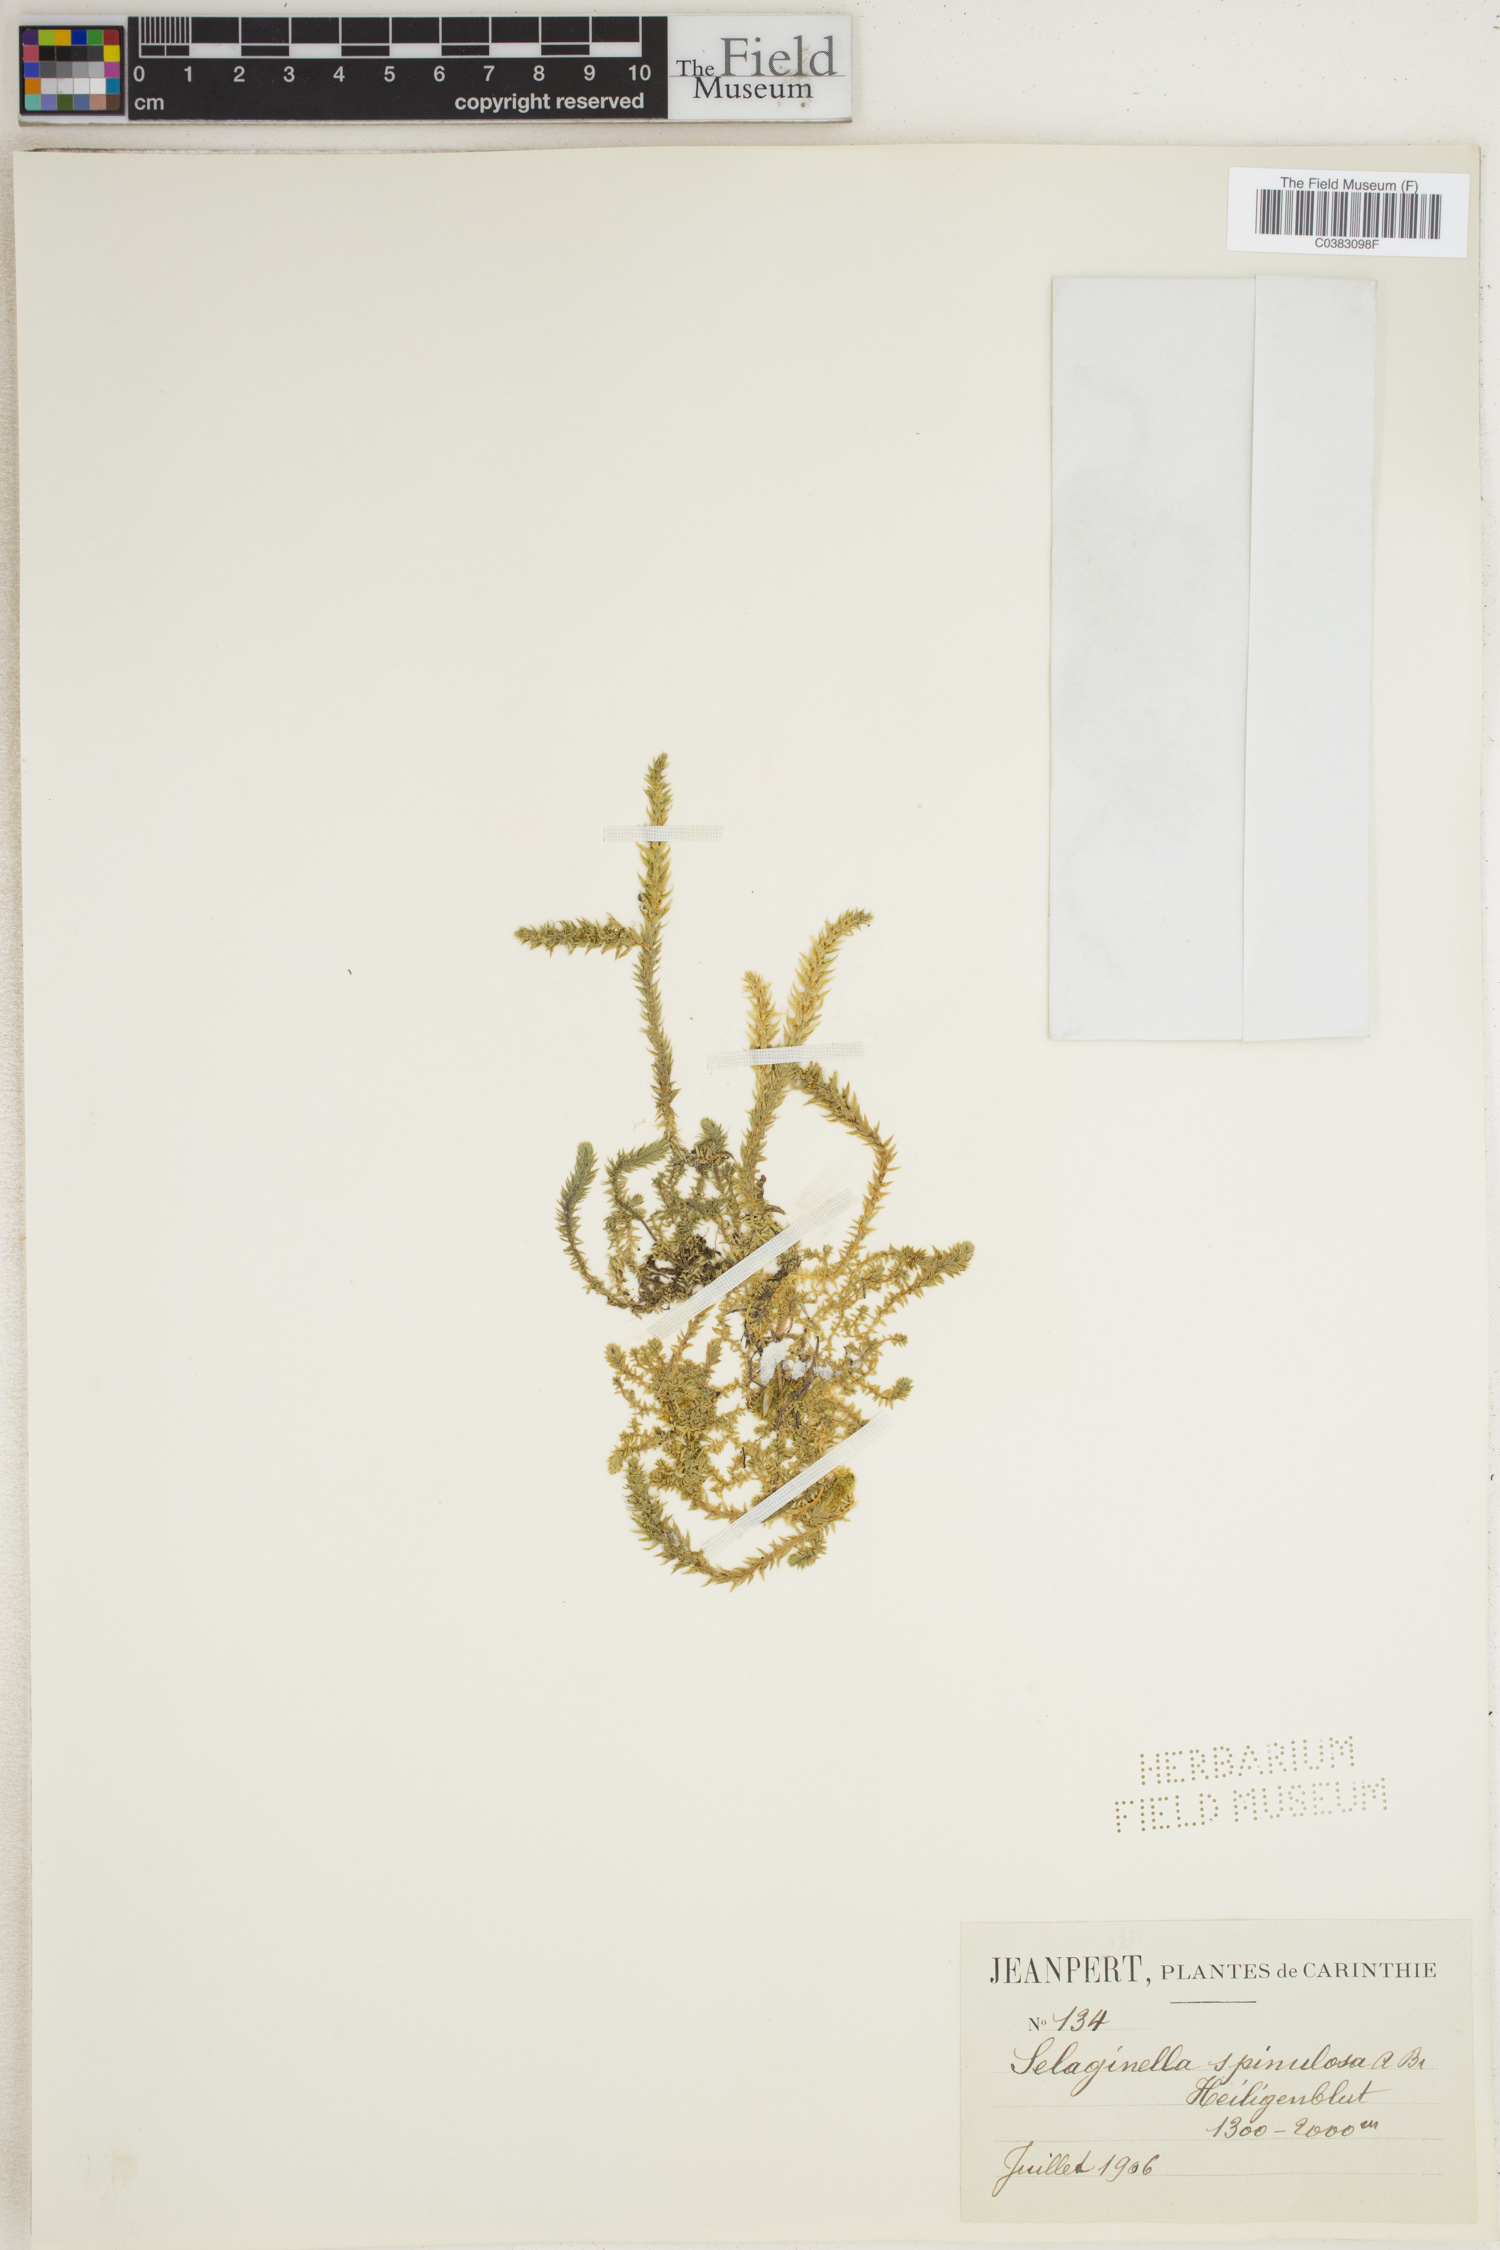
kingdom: Plantae
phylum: Tracheophyta
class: Lycopodiopsida
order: Selaginellales
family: Selaginellaceae
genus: Selaginella
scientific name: Selaginella selaginoides
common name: Prickly mountain-moss
